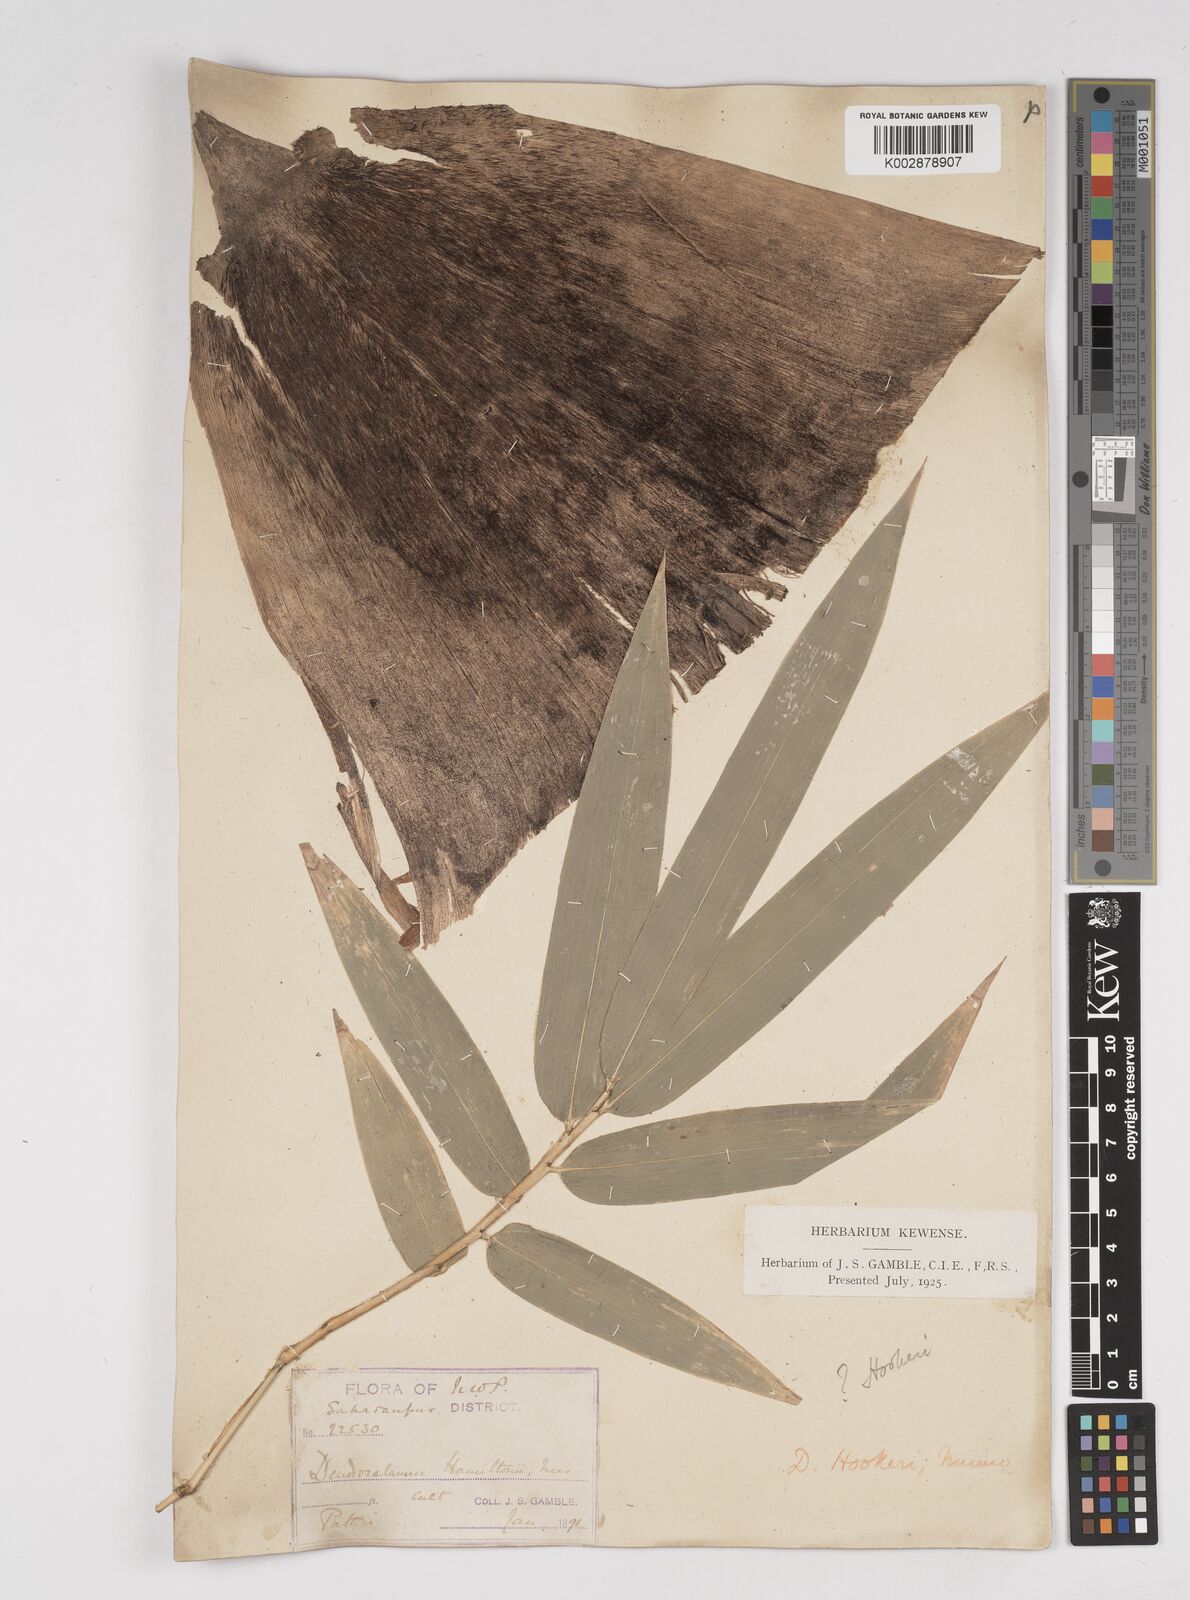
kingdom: Plantae
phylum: Tracheophyta
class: Liliopsida
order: Poales
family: Poaceae
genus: Dendrocalamus
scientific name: Dendrocalamus hookeri
